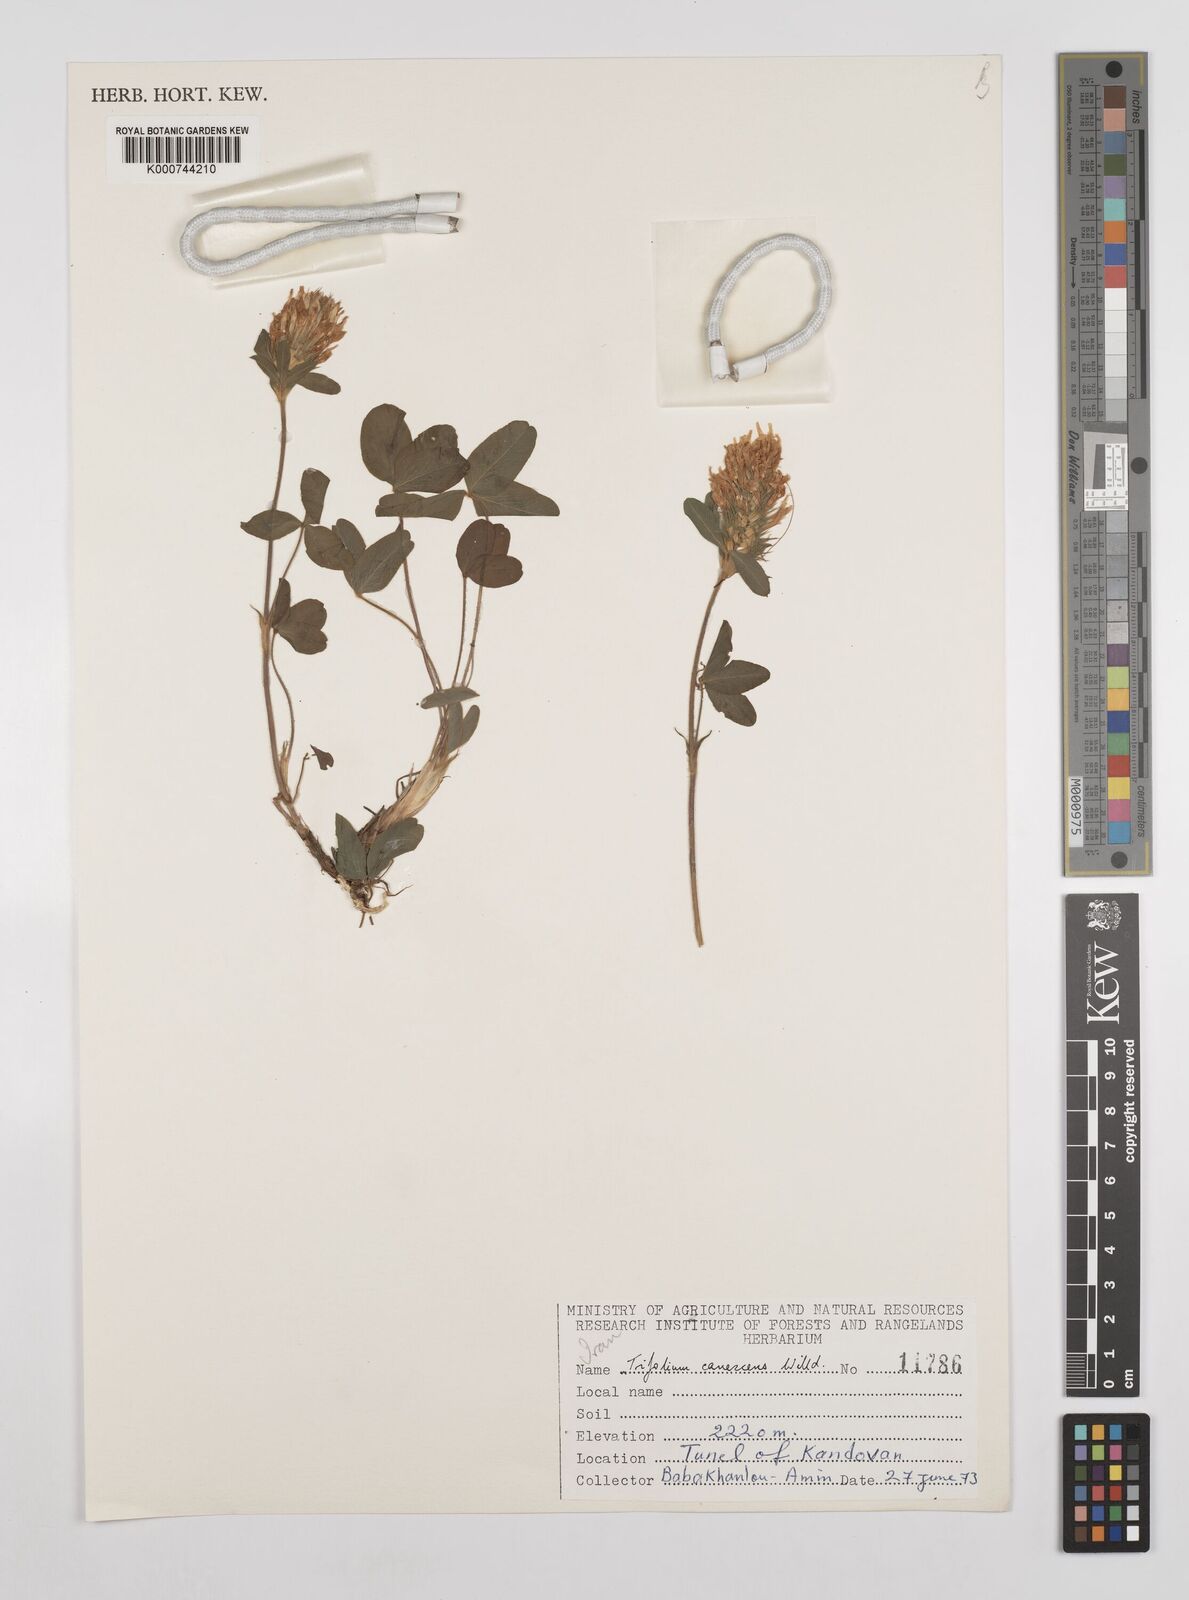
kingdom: Plantae
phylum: Tracheophyta
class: Magnoliopsida
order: Fabales
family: Fabaceae
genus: Trifolium
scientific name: Trifolium canescens
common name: Graying clover
